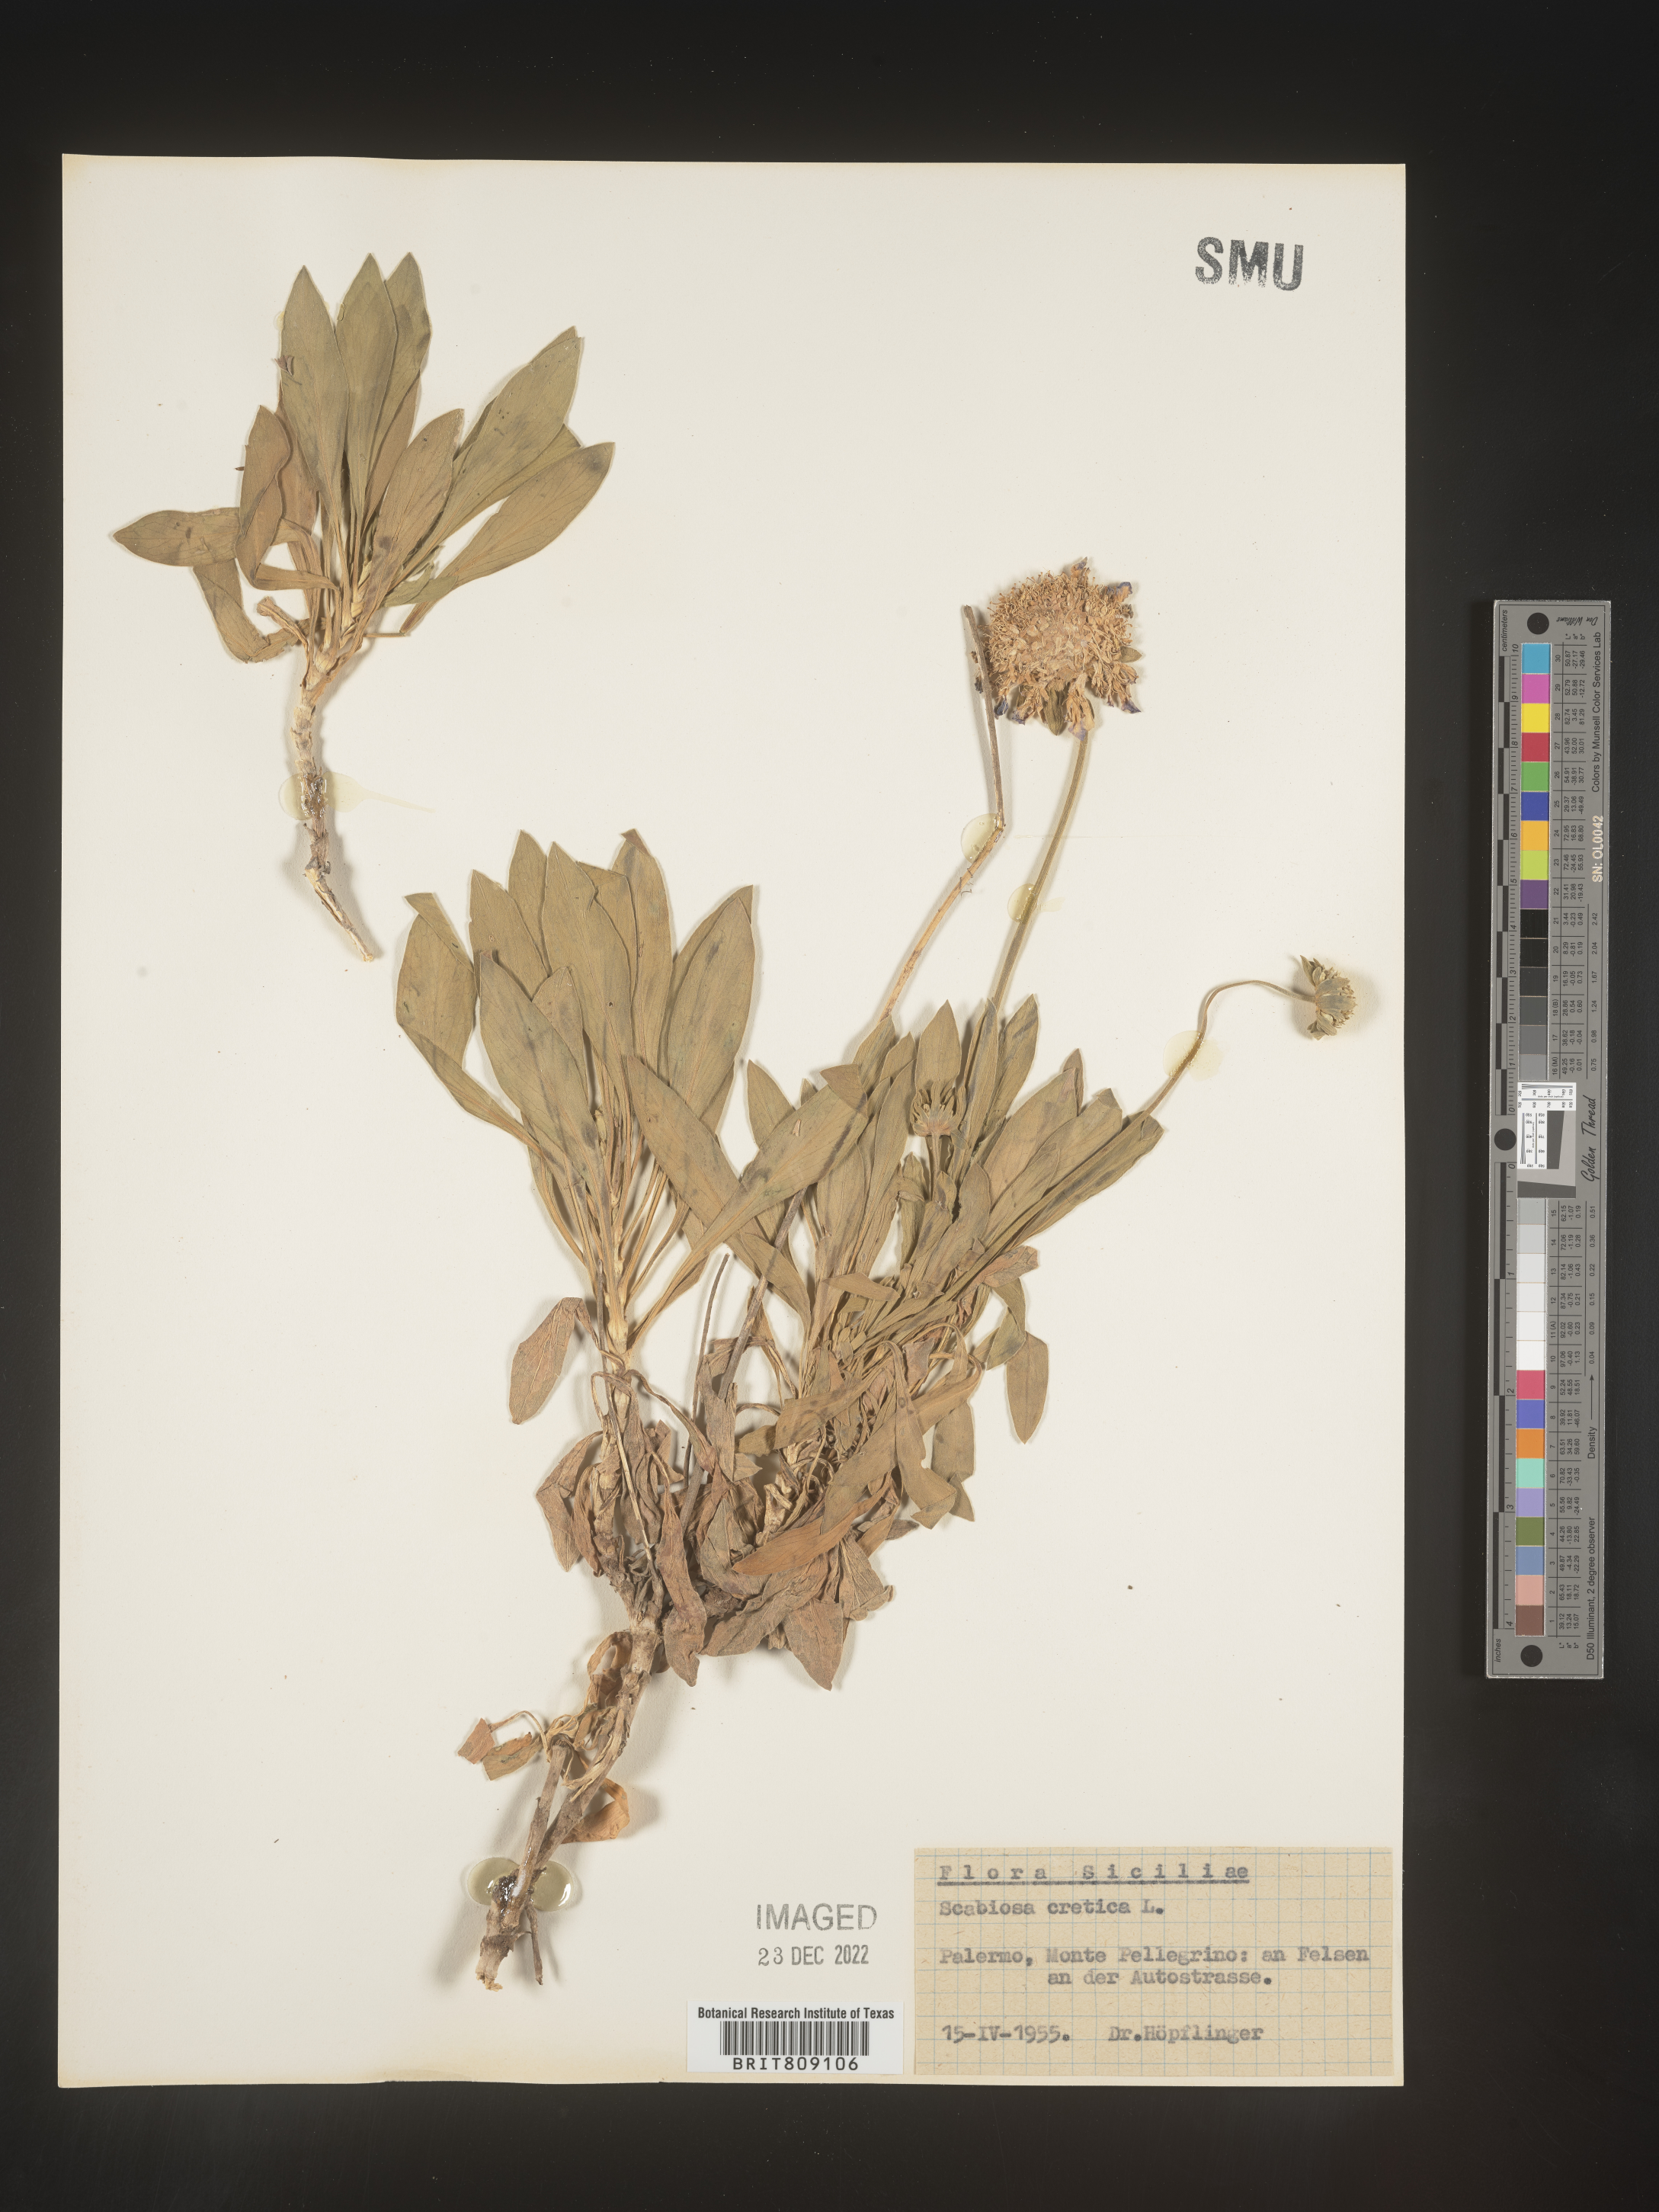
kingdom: Plantae
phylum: Tracheophyta
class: Magnoliopsida
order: Dipsacales
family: Caprifoliaceae
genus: Scabiosa
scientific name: Scabiosa
